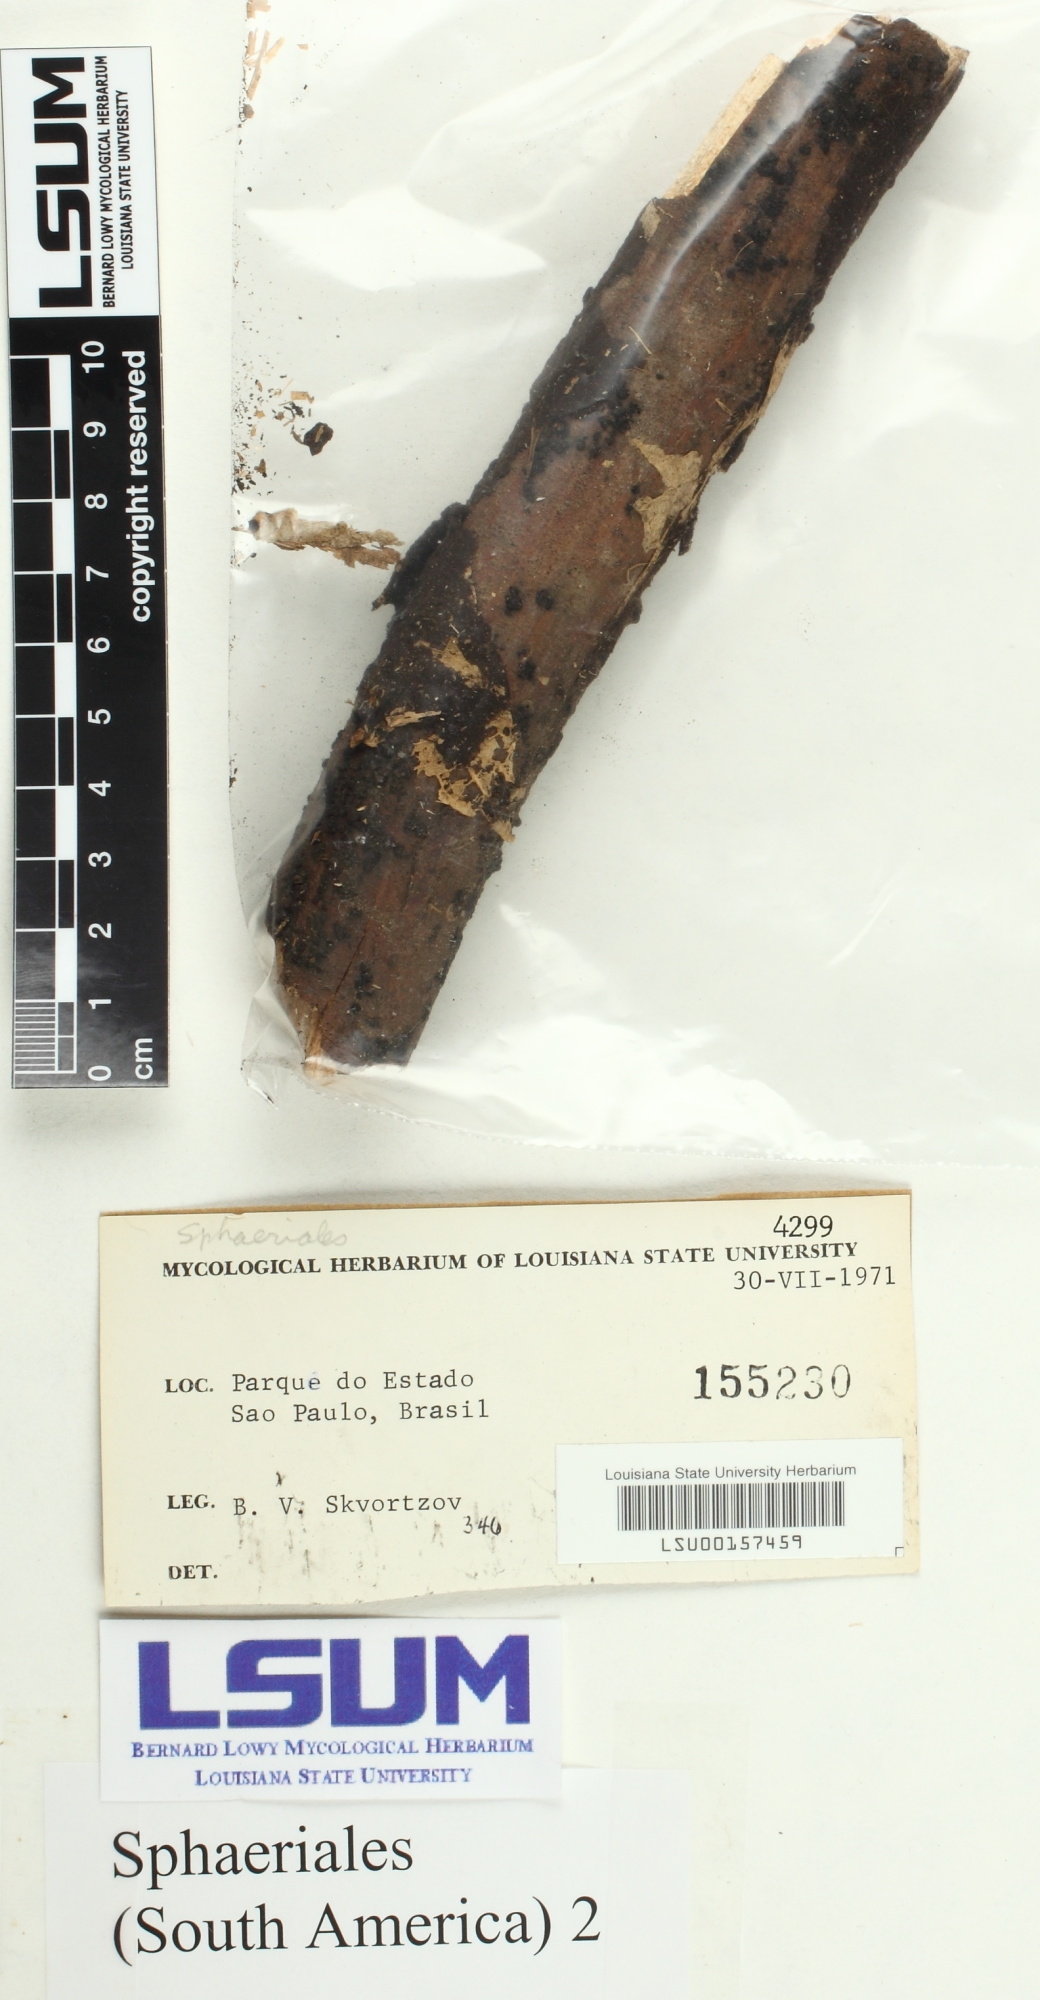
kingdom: Fungi
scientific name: Fungi
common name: Fungi
